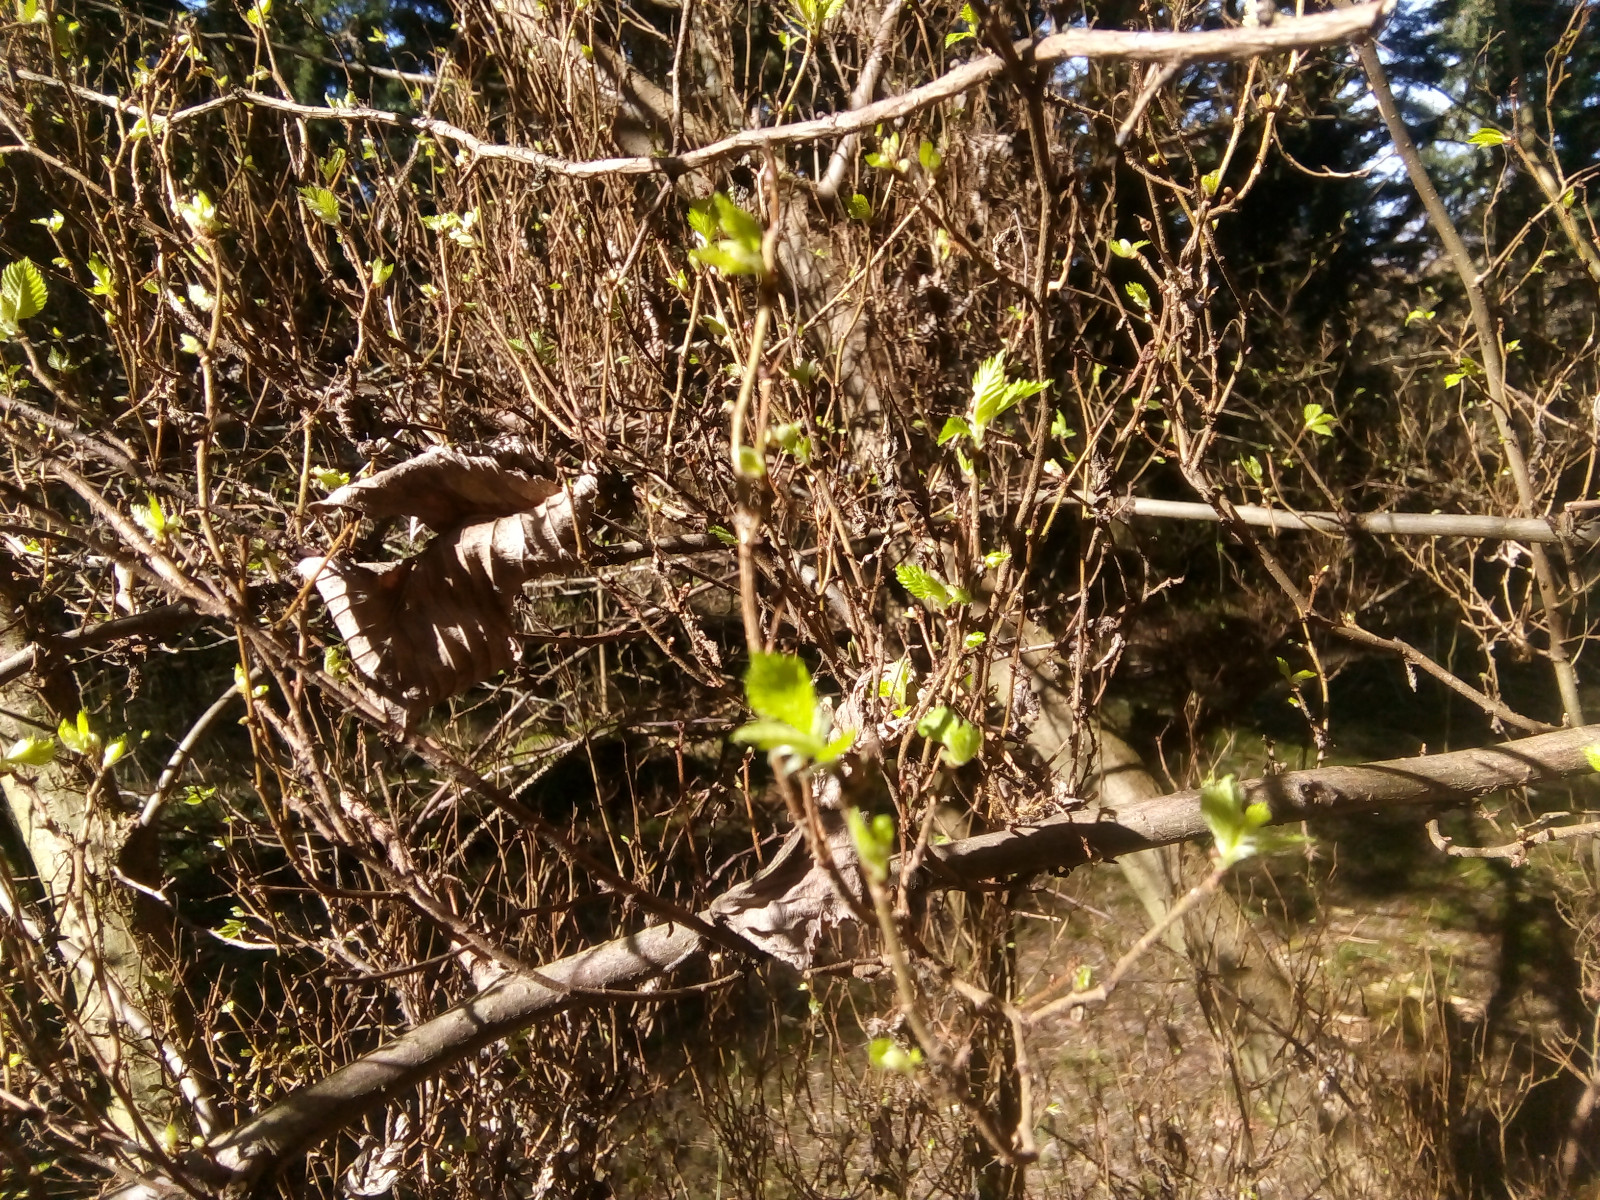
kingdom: Fungi
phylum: Ascomycota
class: Taphrinomycetes
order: Taphrinales
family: Taphrinaceae
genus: Taphrina
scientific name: Taphrina carpini
